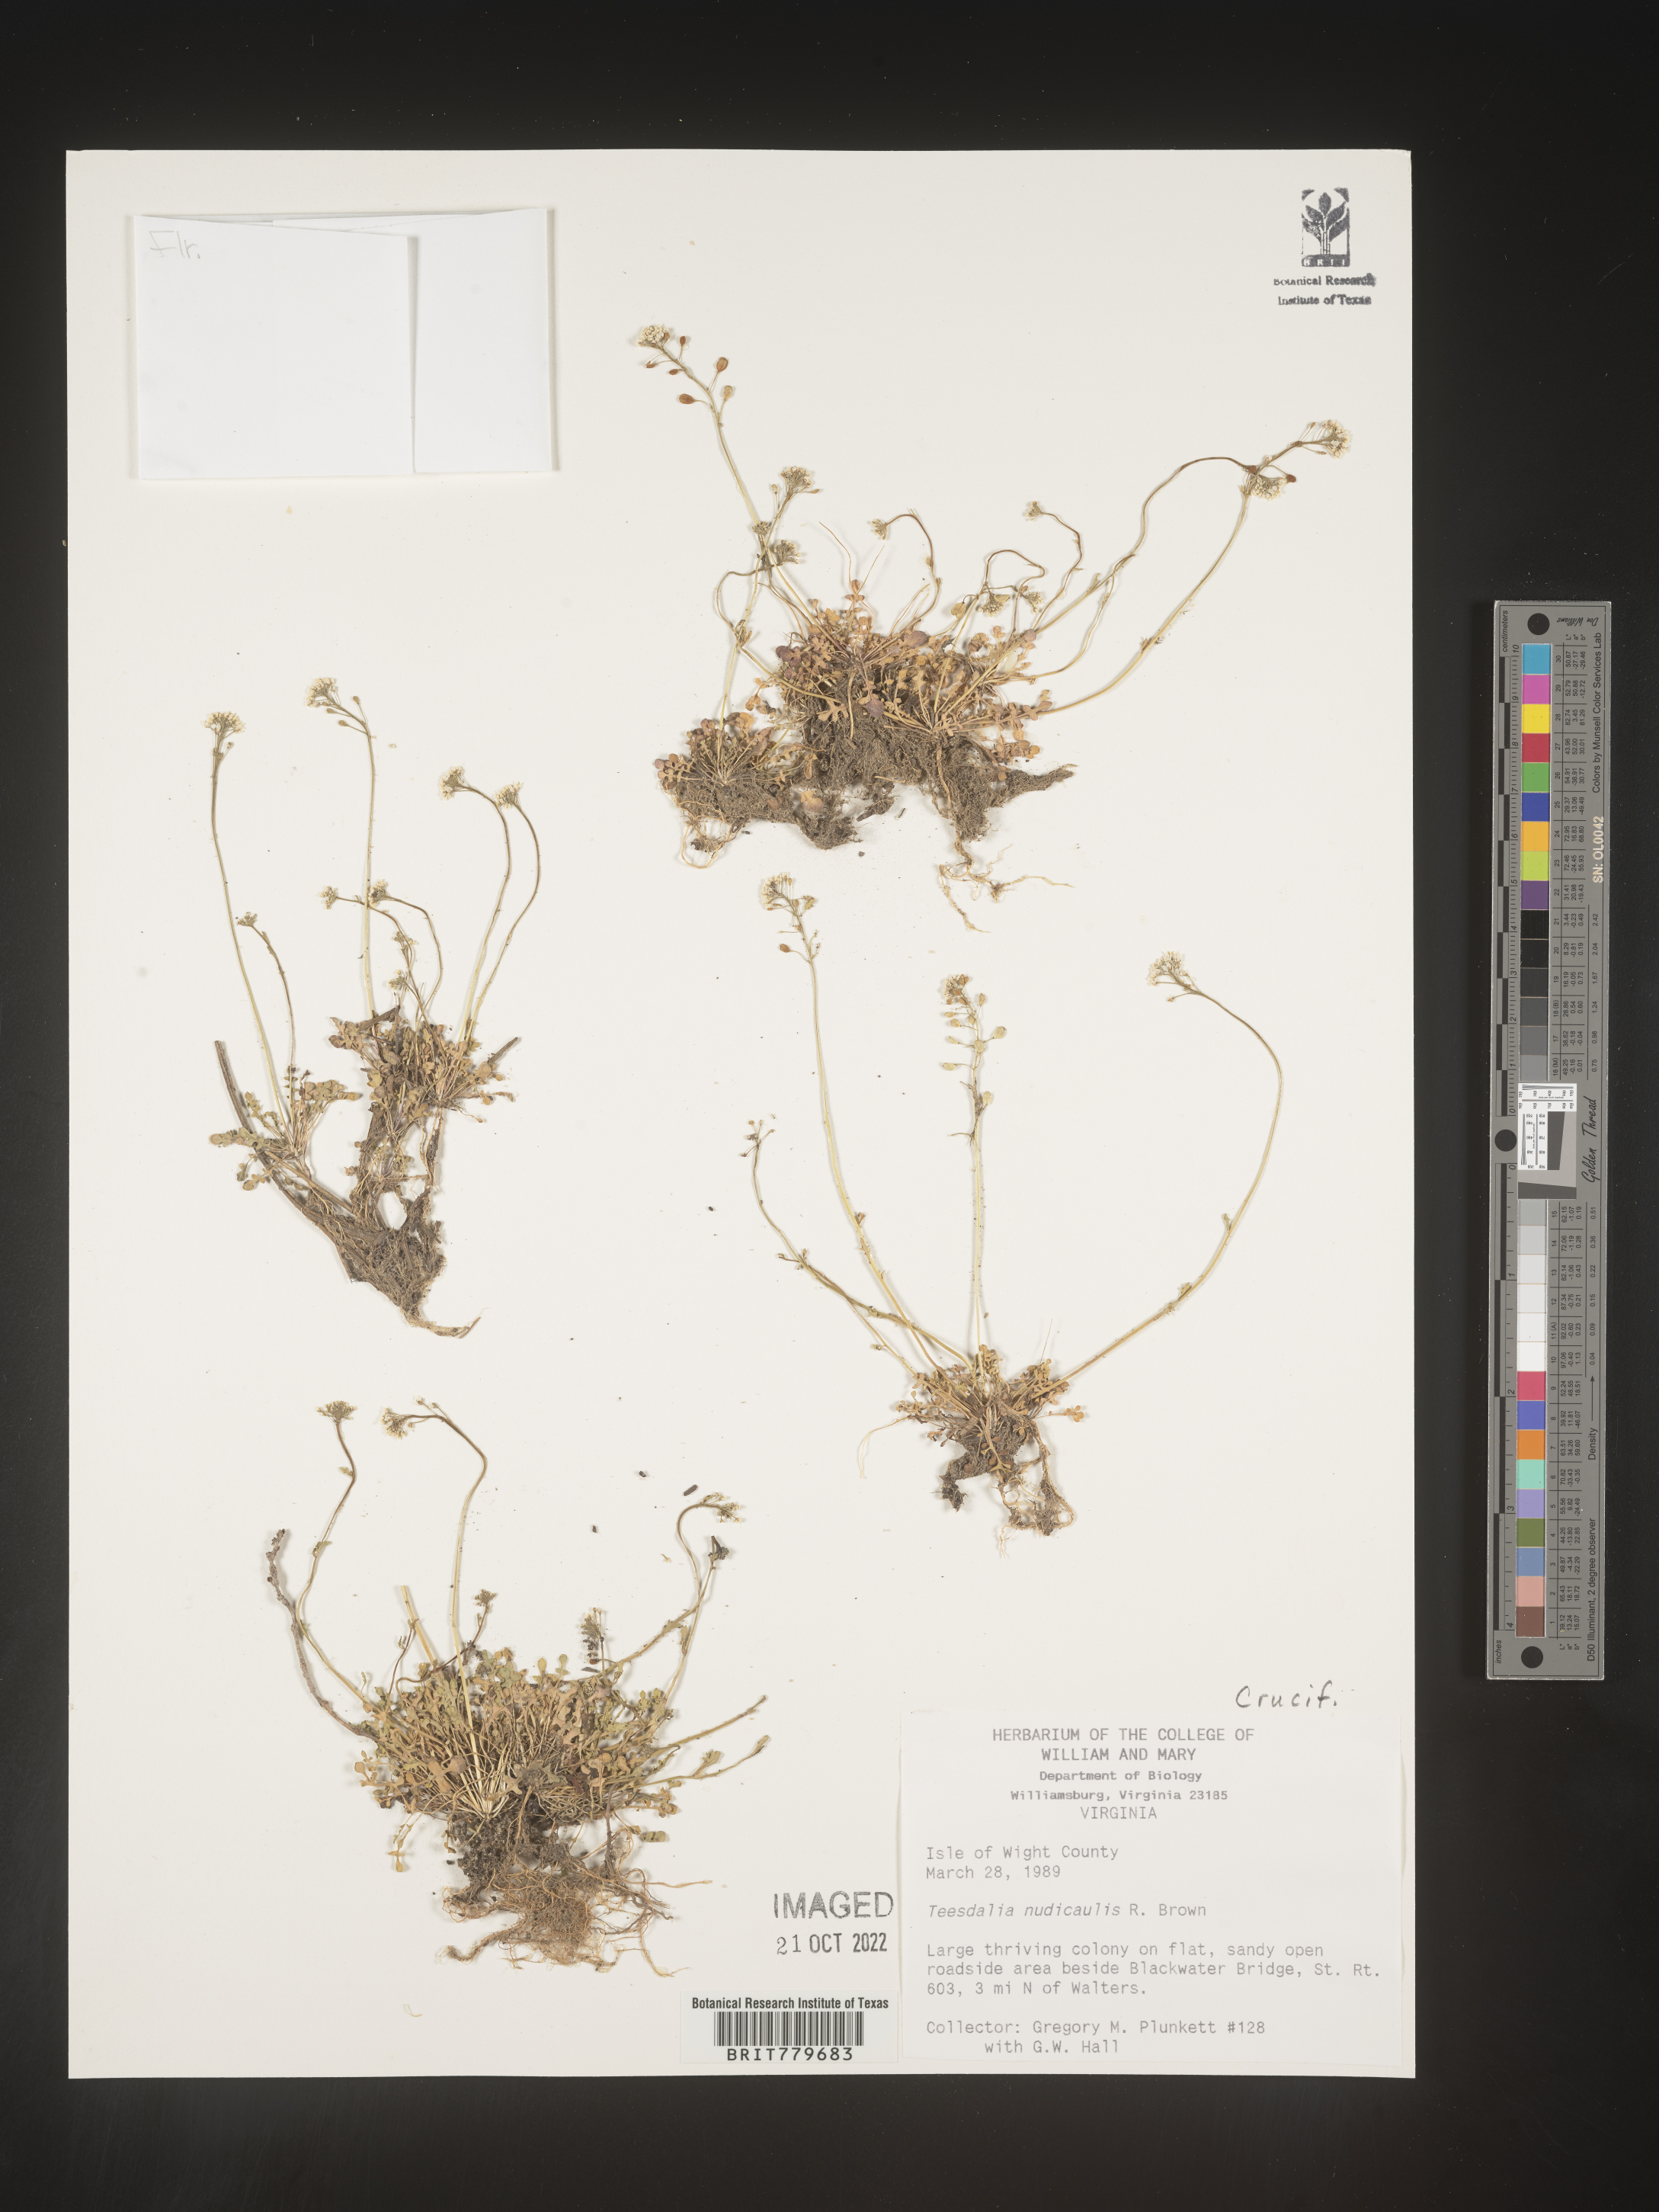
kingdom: Plantae
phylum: Tracheophyta
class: Magnoliopsida
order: Brassicales
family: Brassicaceae
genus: Teesdalia
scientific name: Teesdalia
